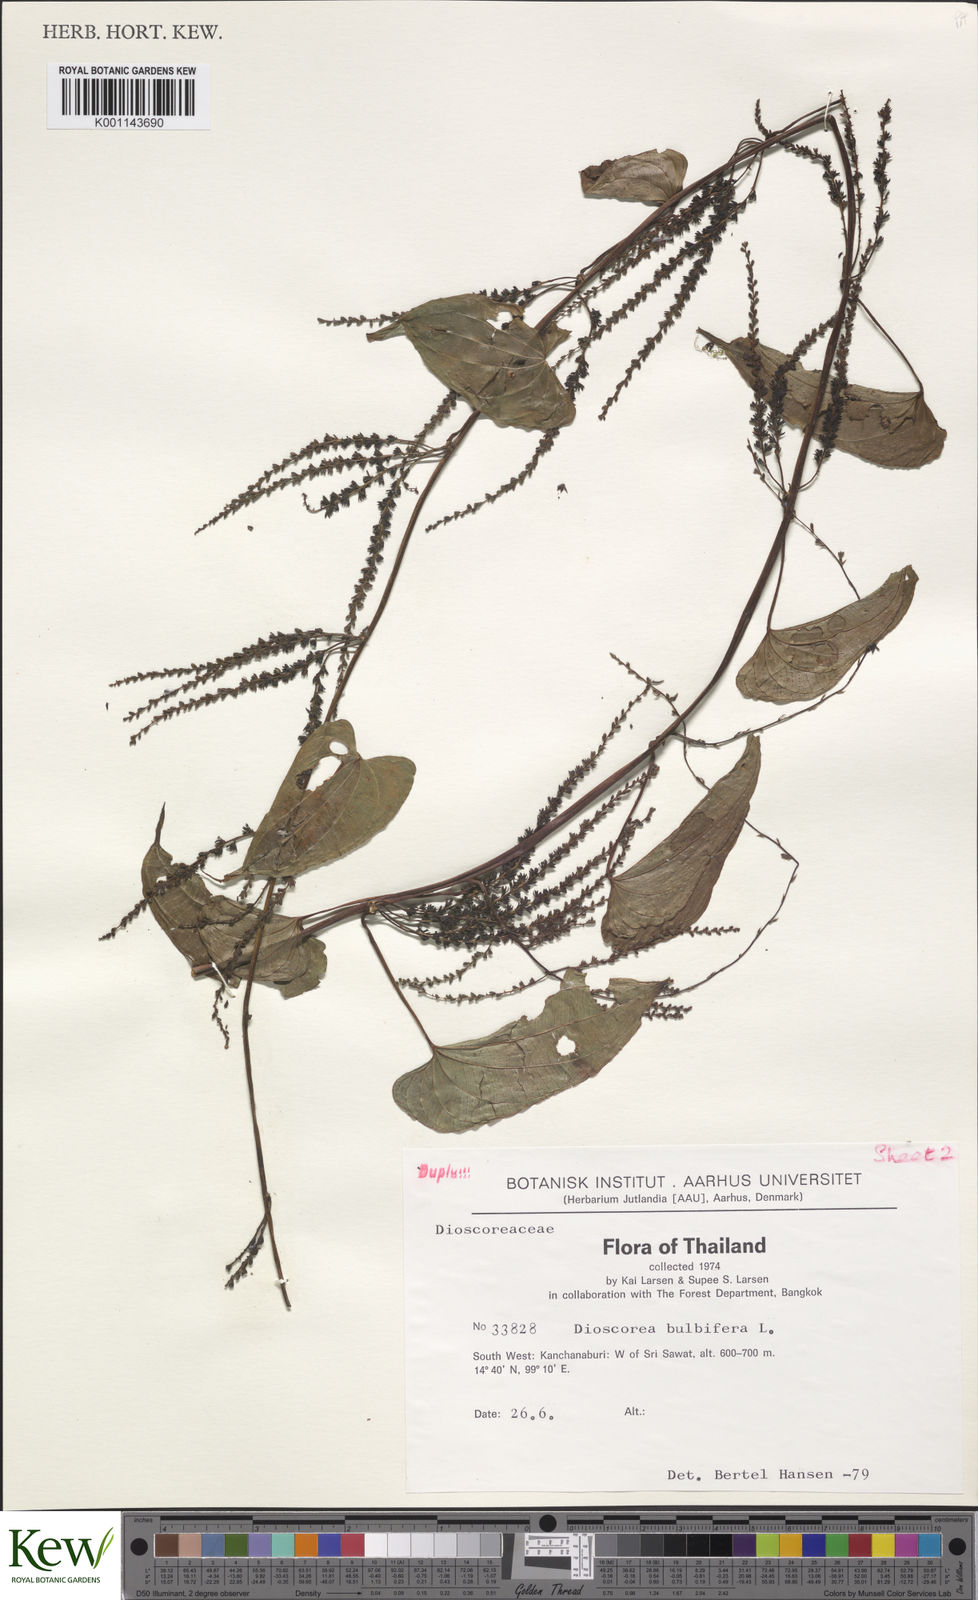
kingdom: Plantae
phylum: Tracheophyta
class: Liliopsida
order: Dioscoreales
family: Dioscoreaceae
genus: Dioscorea
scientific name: Dioscorea bulbifera
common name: Air yam
